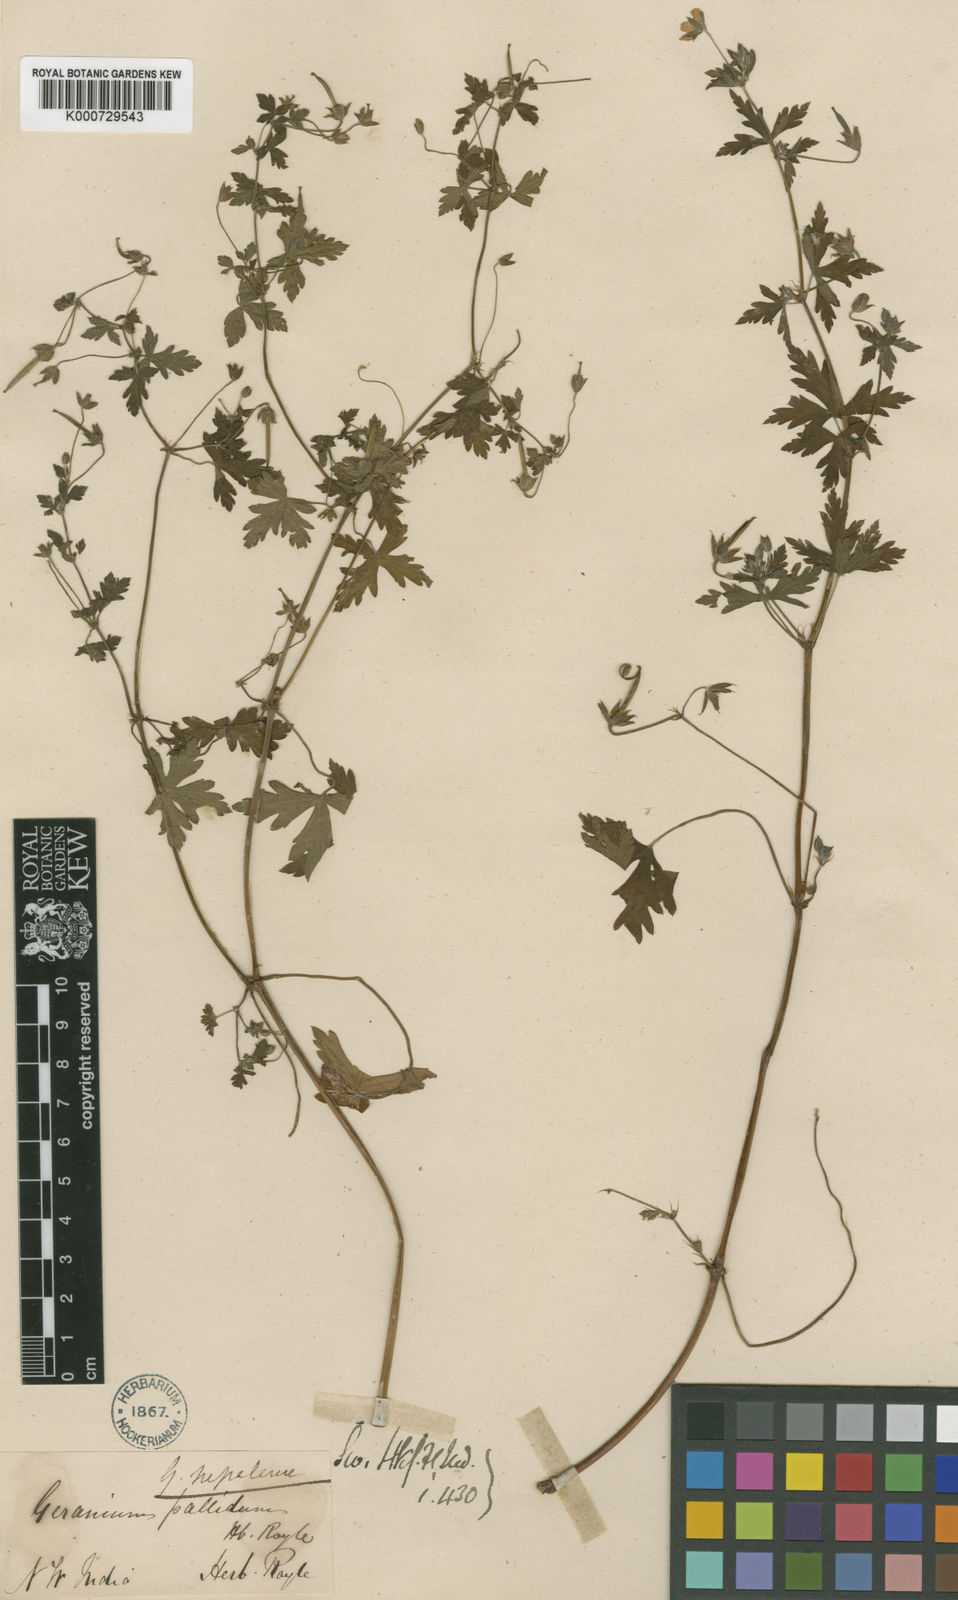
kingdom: Plantae
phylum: Tracheophyta
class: Magnoliopsida
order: Geraniales
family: Geraniaceae
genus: Geranium
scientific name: Geranium nepalense
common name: Nepalese crane's-bill
